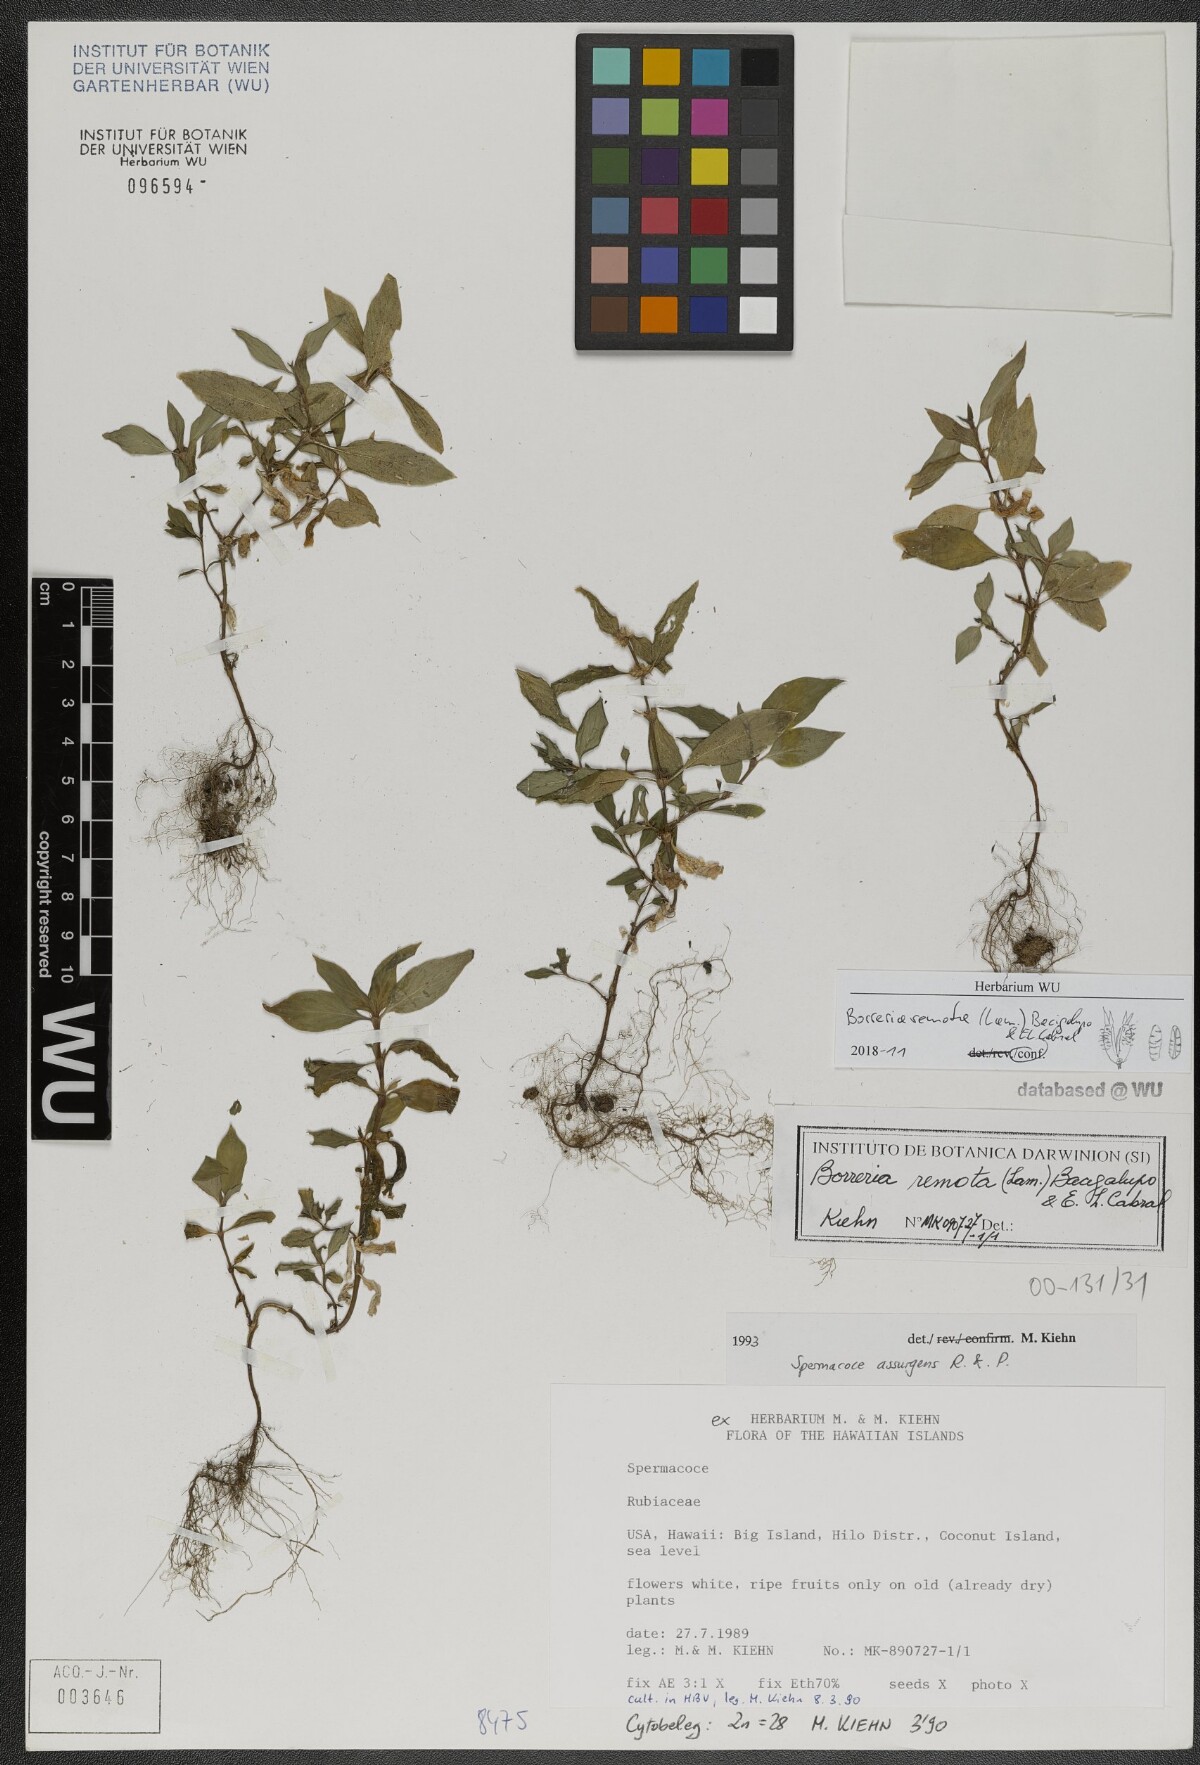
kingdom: Plantae
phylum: Tracheophyta
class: Magnoliopsida
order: Gentianales
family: Rubiaceae
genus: Spermacoce
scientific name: Spermacoce remota
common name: Woodland false buttonweed
